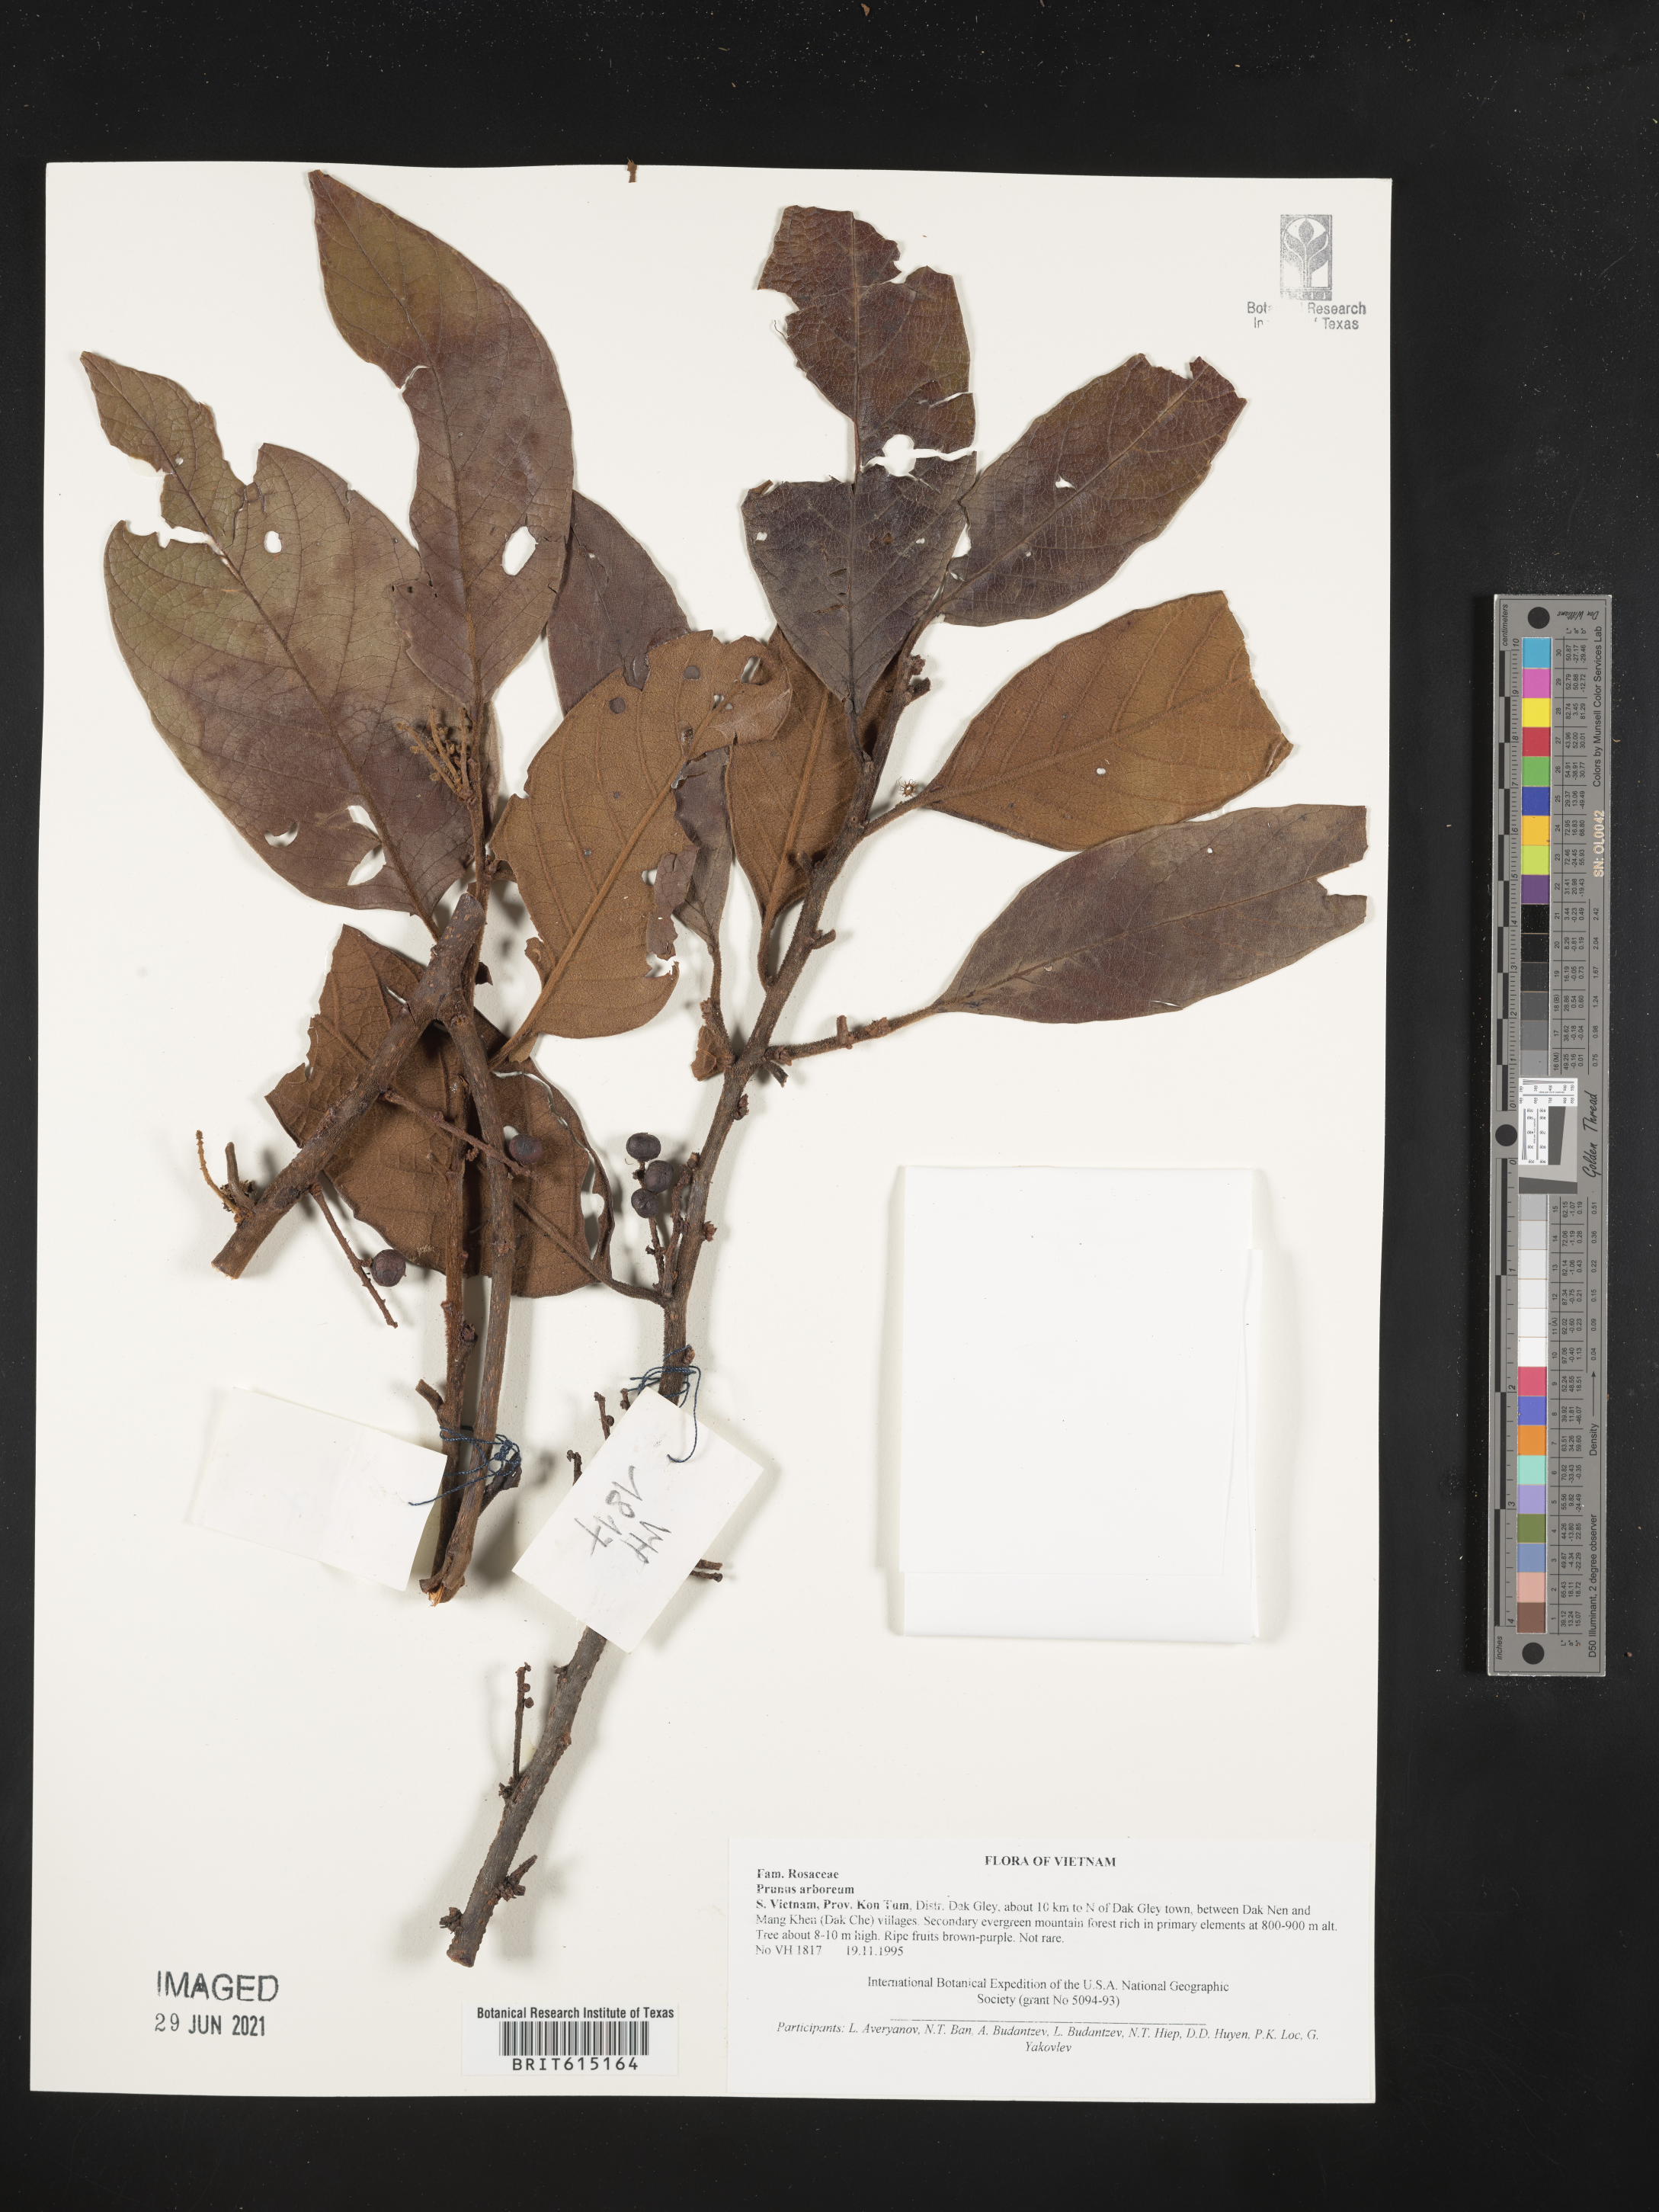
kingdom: Plantae
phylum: Tracheophyta
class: Magnoliopsida
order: Rosales
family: Rosaceae
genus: Prunus
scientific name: Prunus arborea
